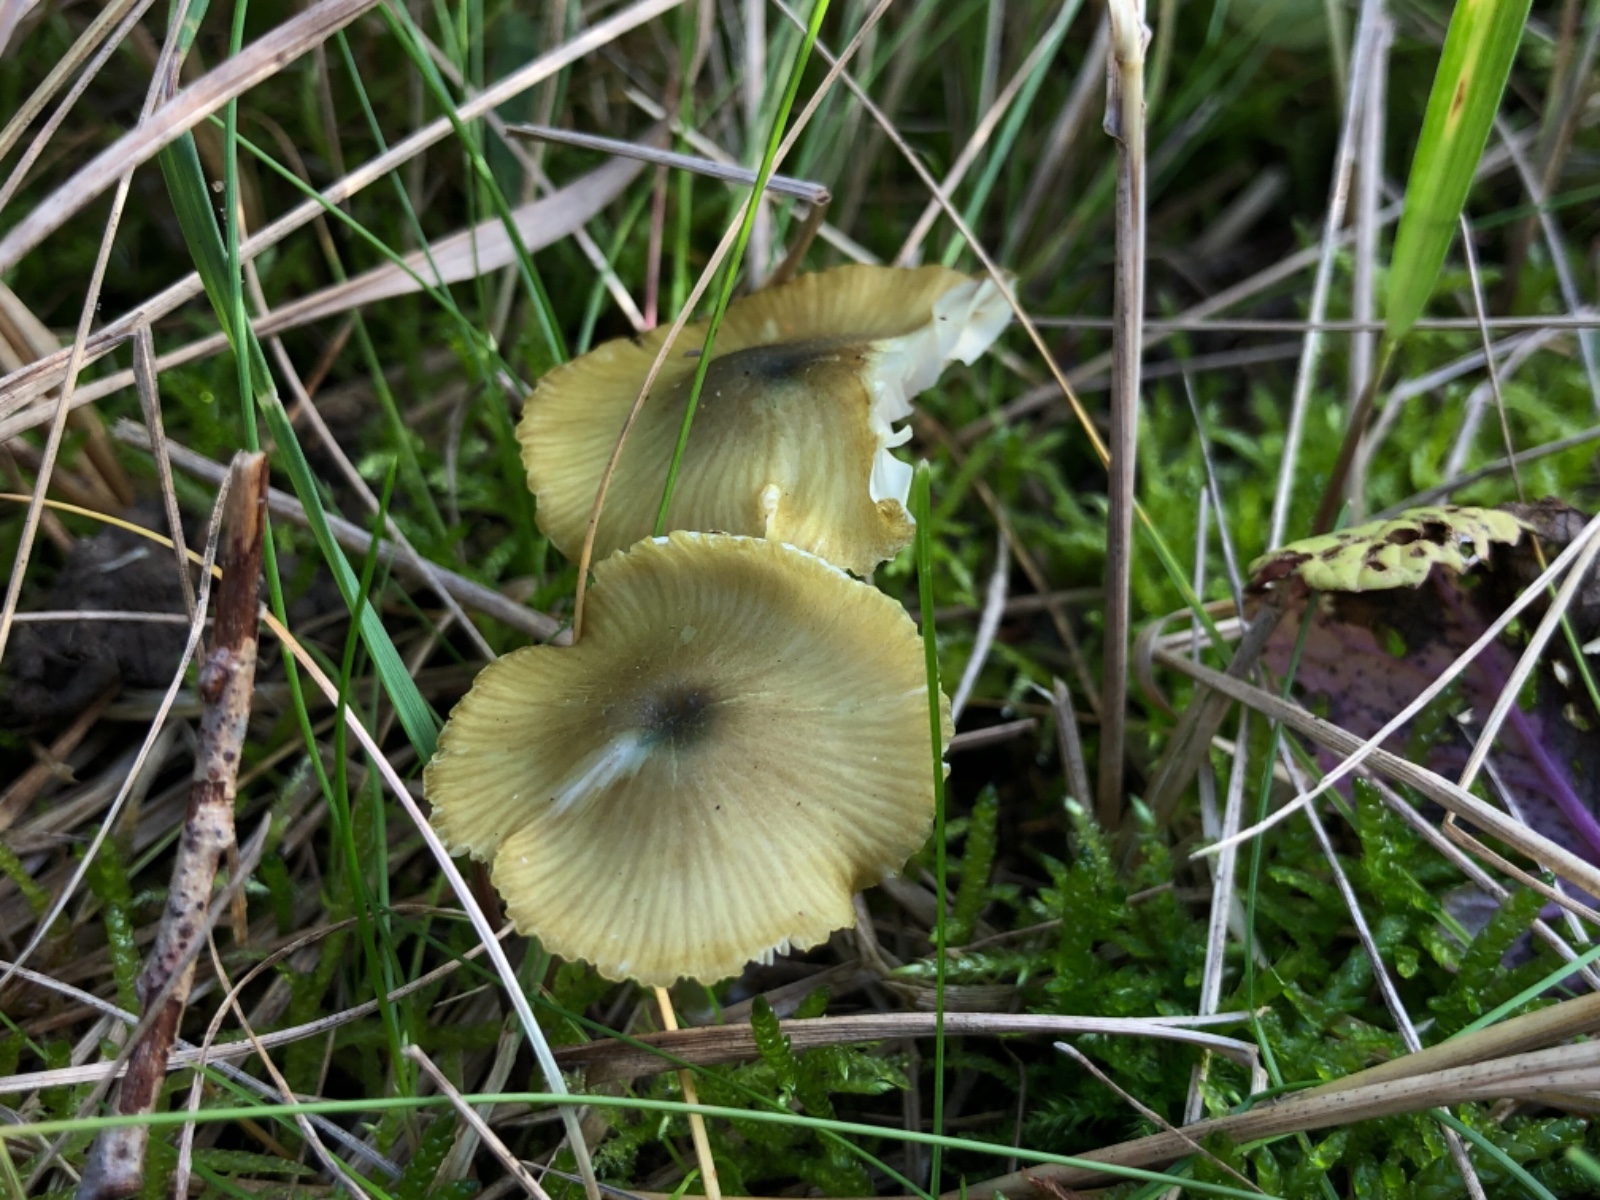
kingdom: Fungi
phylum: Basidiomycota
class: Agaricomycetes
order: Agaricales
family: Entolomataceae
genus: Entoloma
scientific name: Entoloma incanum
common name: grøngul rødblad
